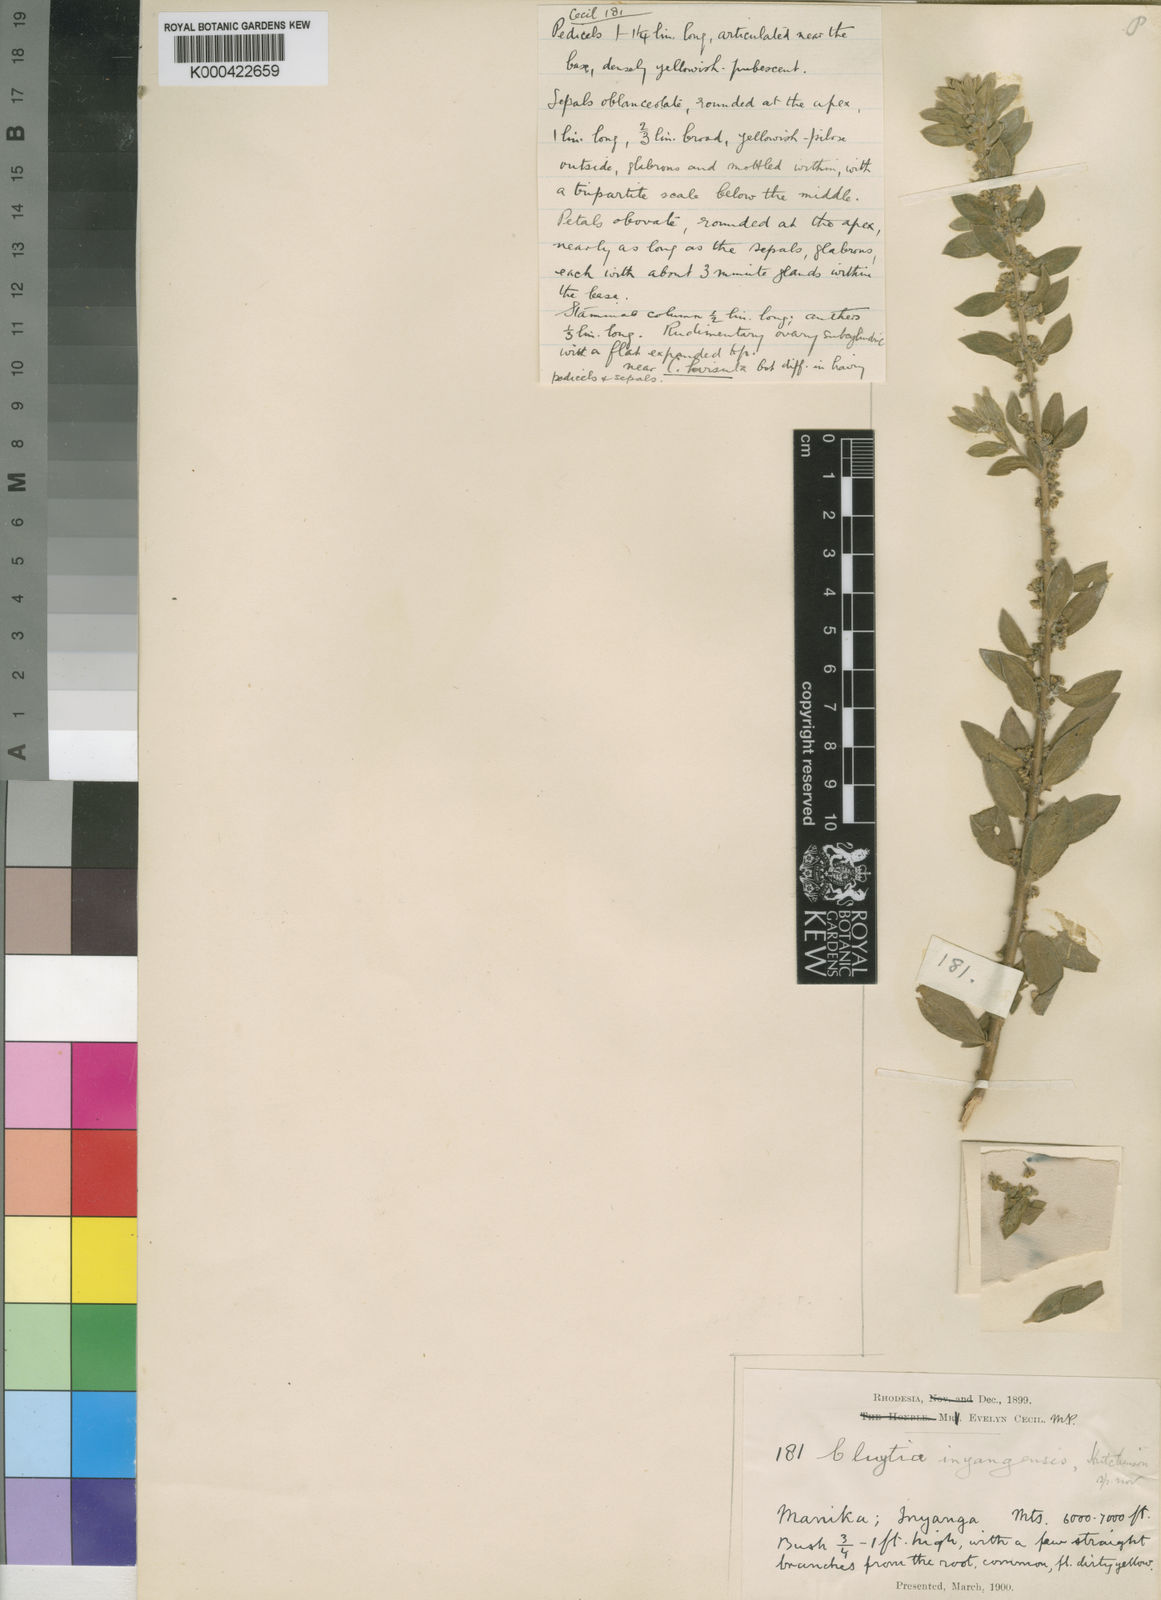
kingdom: Plantae
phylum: Tracheophyta
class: Magnoliopsida
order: Malpighiales
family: Peraceae
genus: Clutia
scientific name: Clutia
